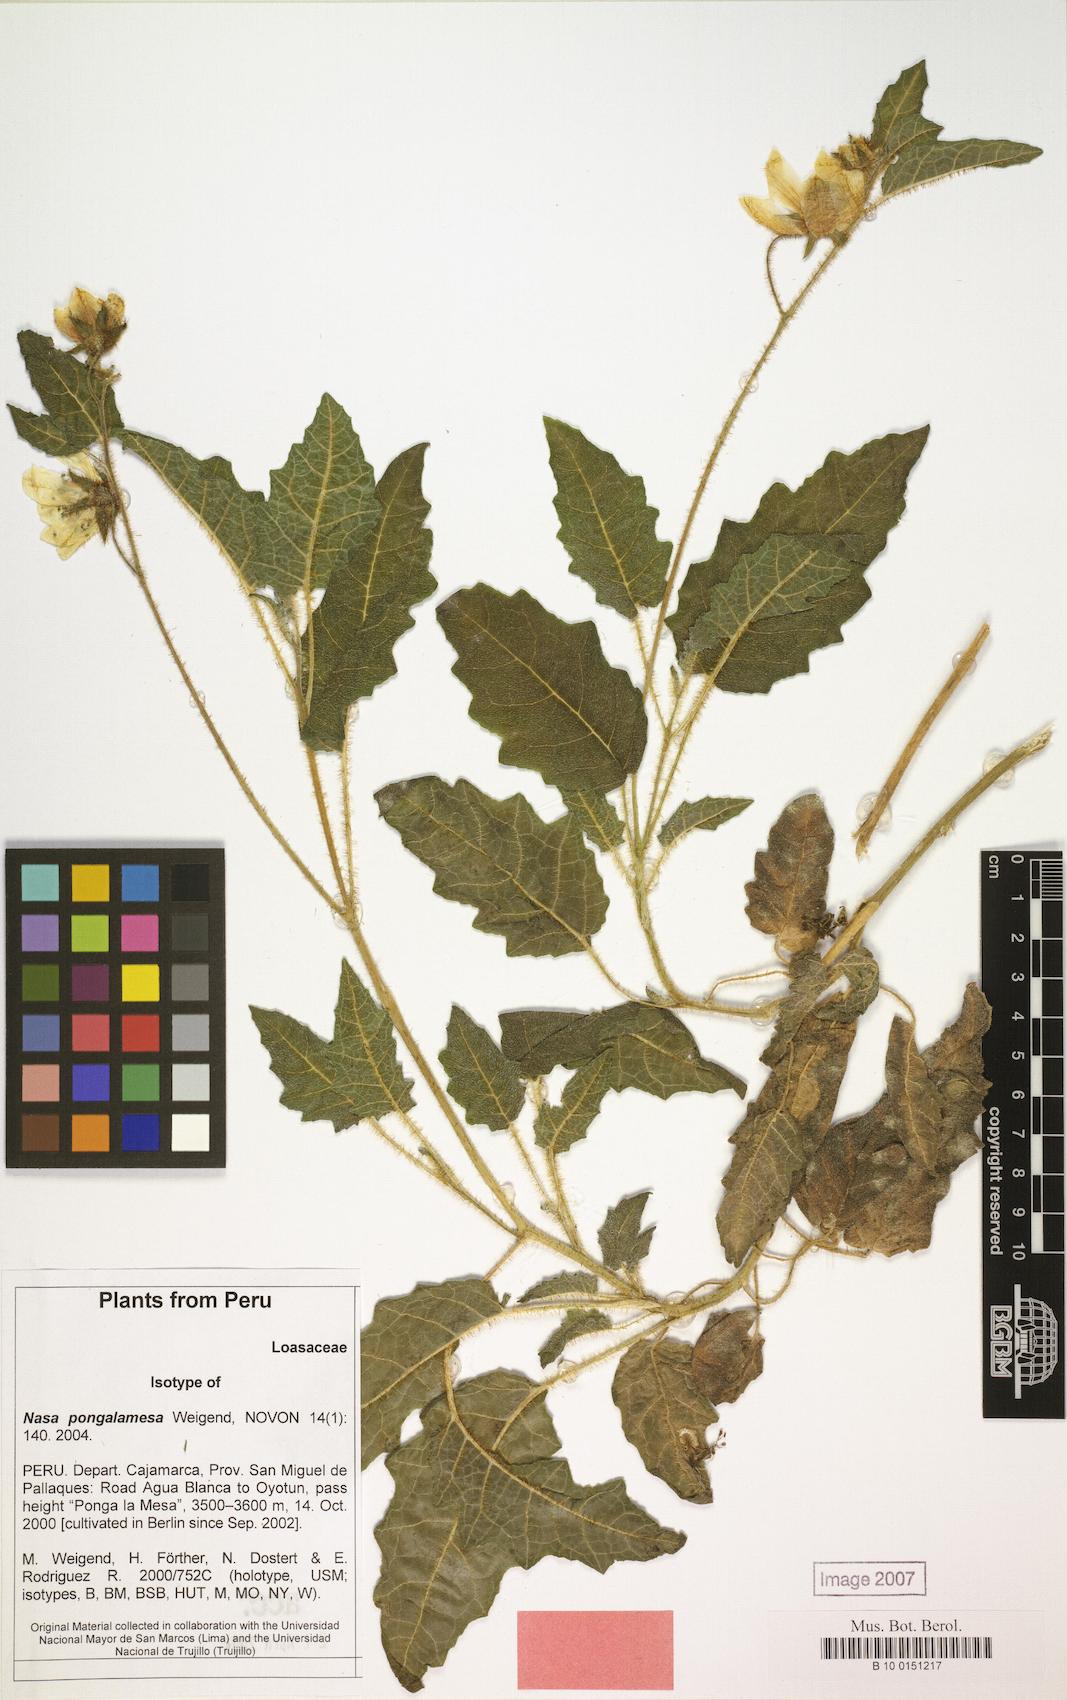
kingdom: Plantae
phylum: Tracheophyta
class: Magnoliopsida
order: Cornales
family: Loasaceae
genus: Nasa
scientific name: Nasa pongalamesa
